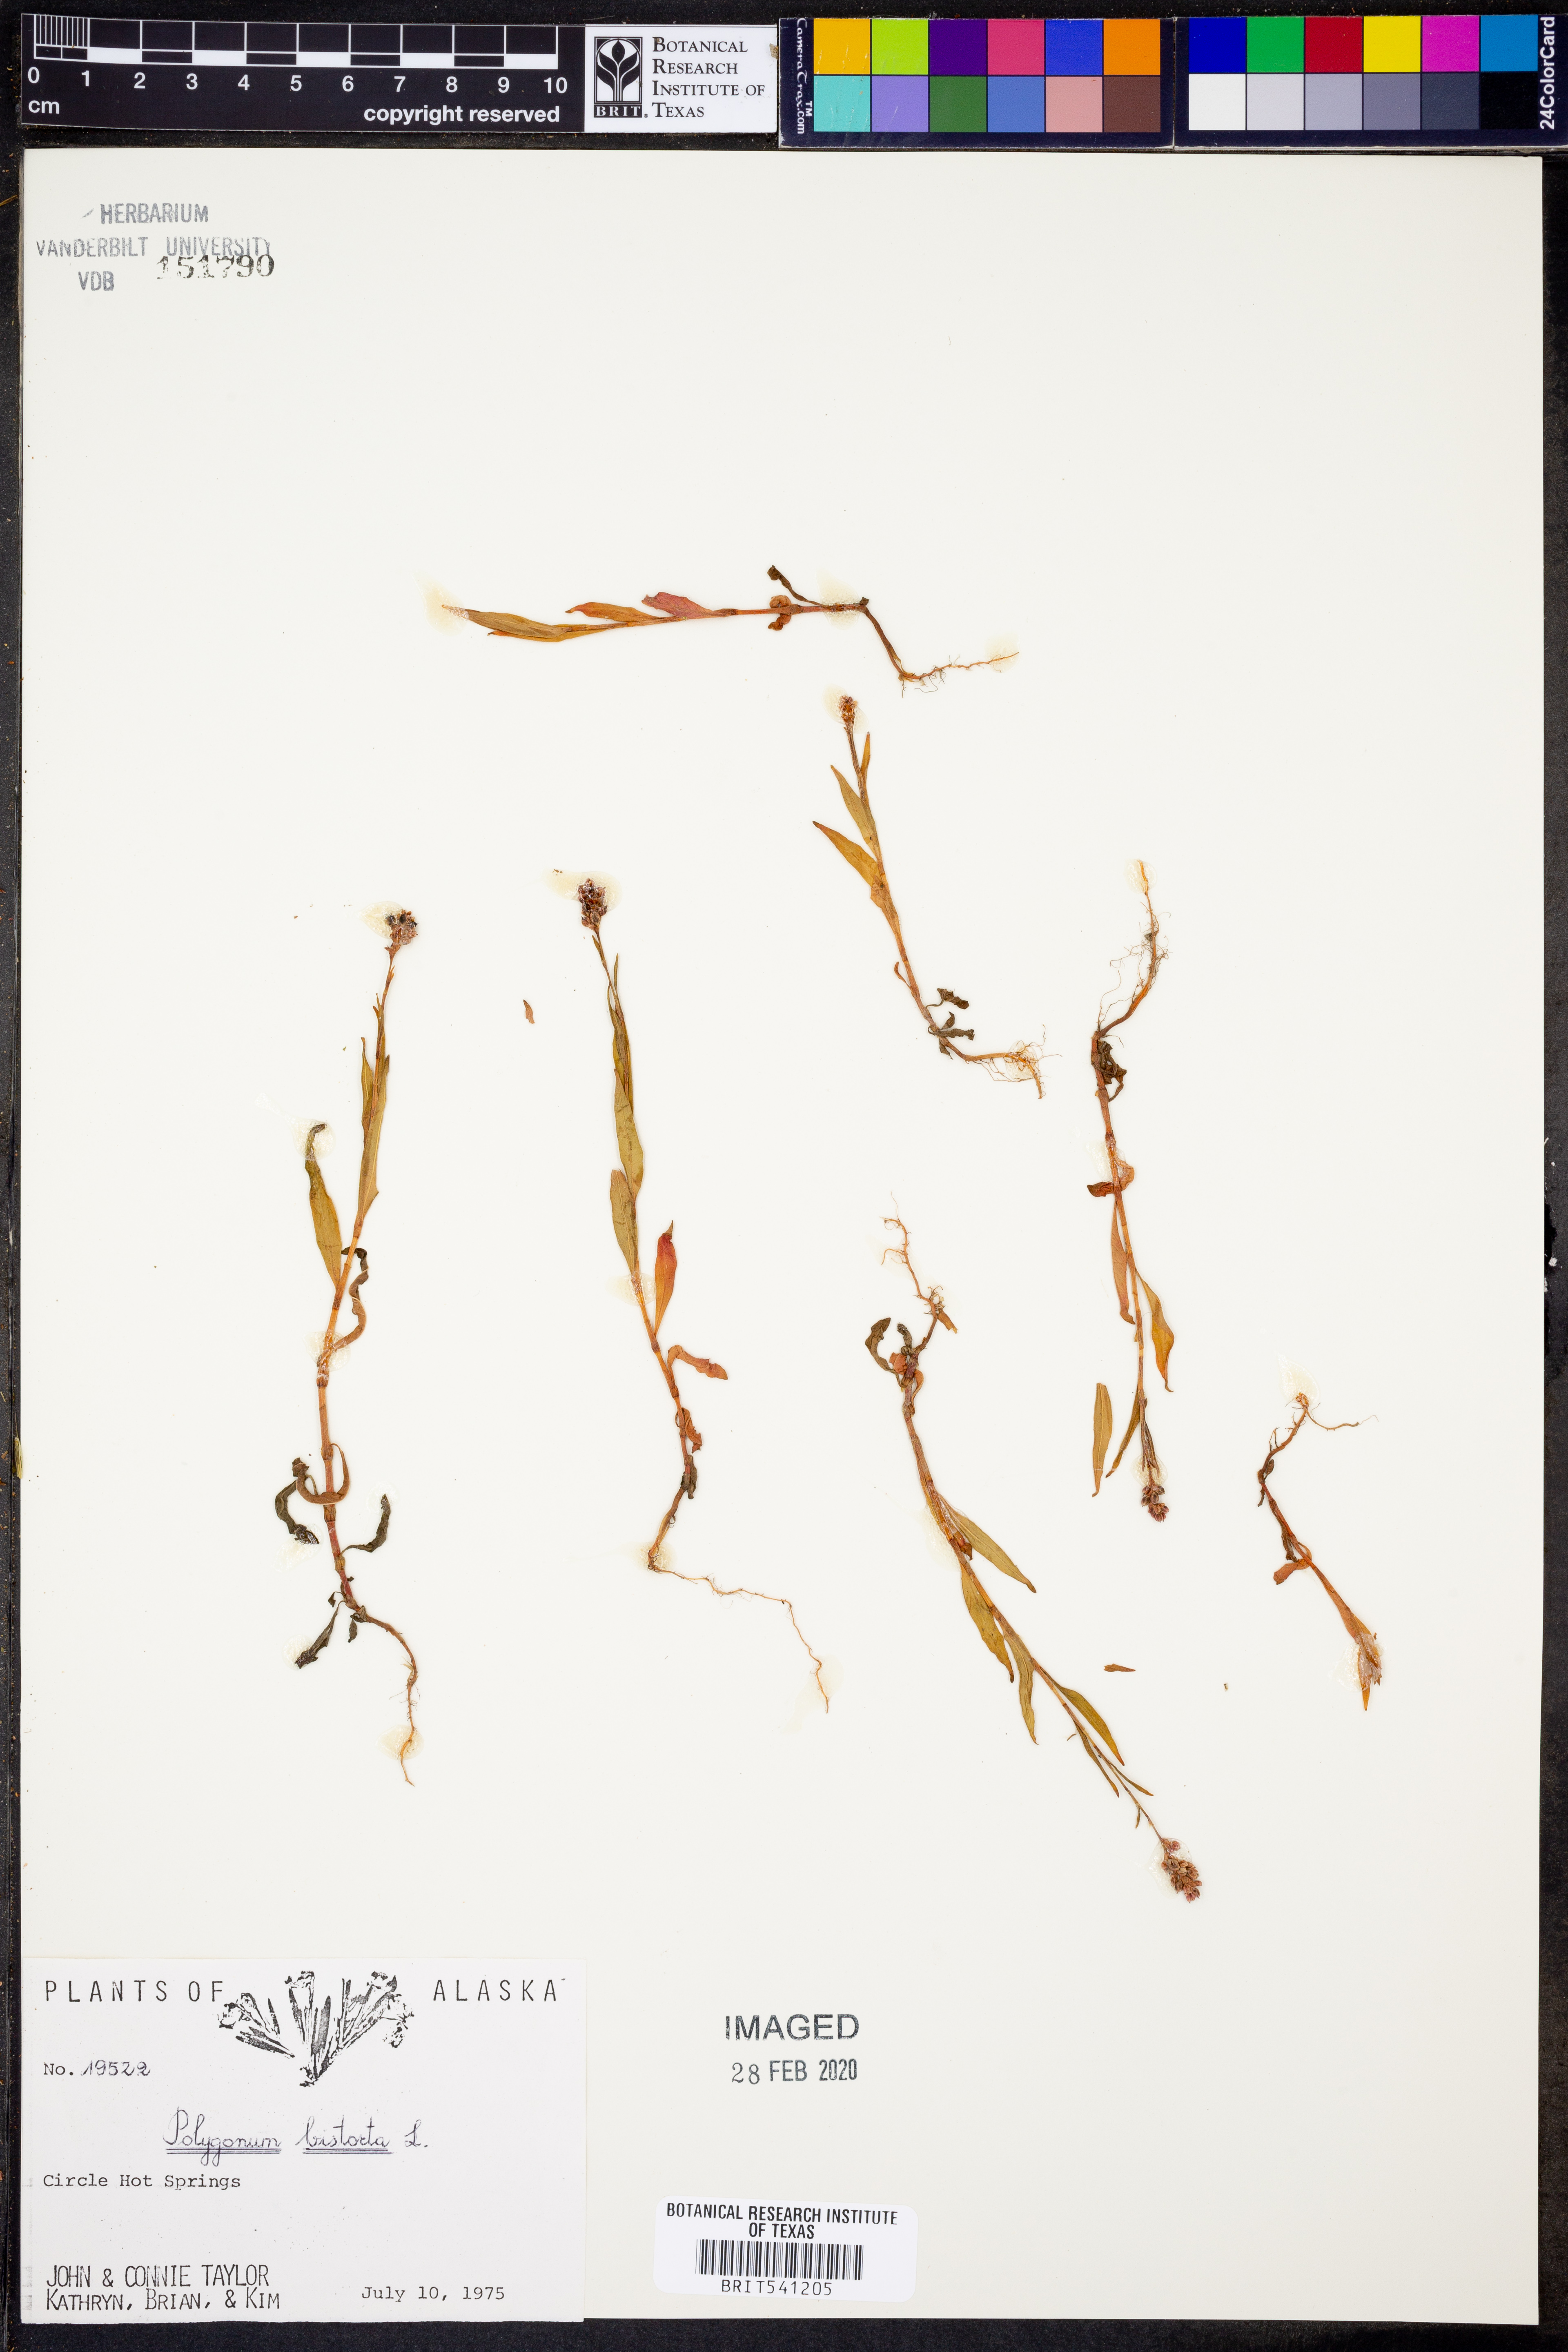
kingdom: Plantae
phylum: Tracheophyta
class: Magnoliopsida
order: Caryophyllales
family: Polygonaceae
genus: Bistorta
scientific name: Bistorta officinalis
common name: Common bistort
